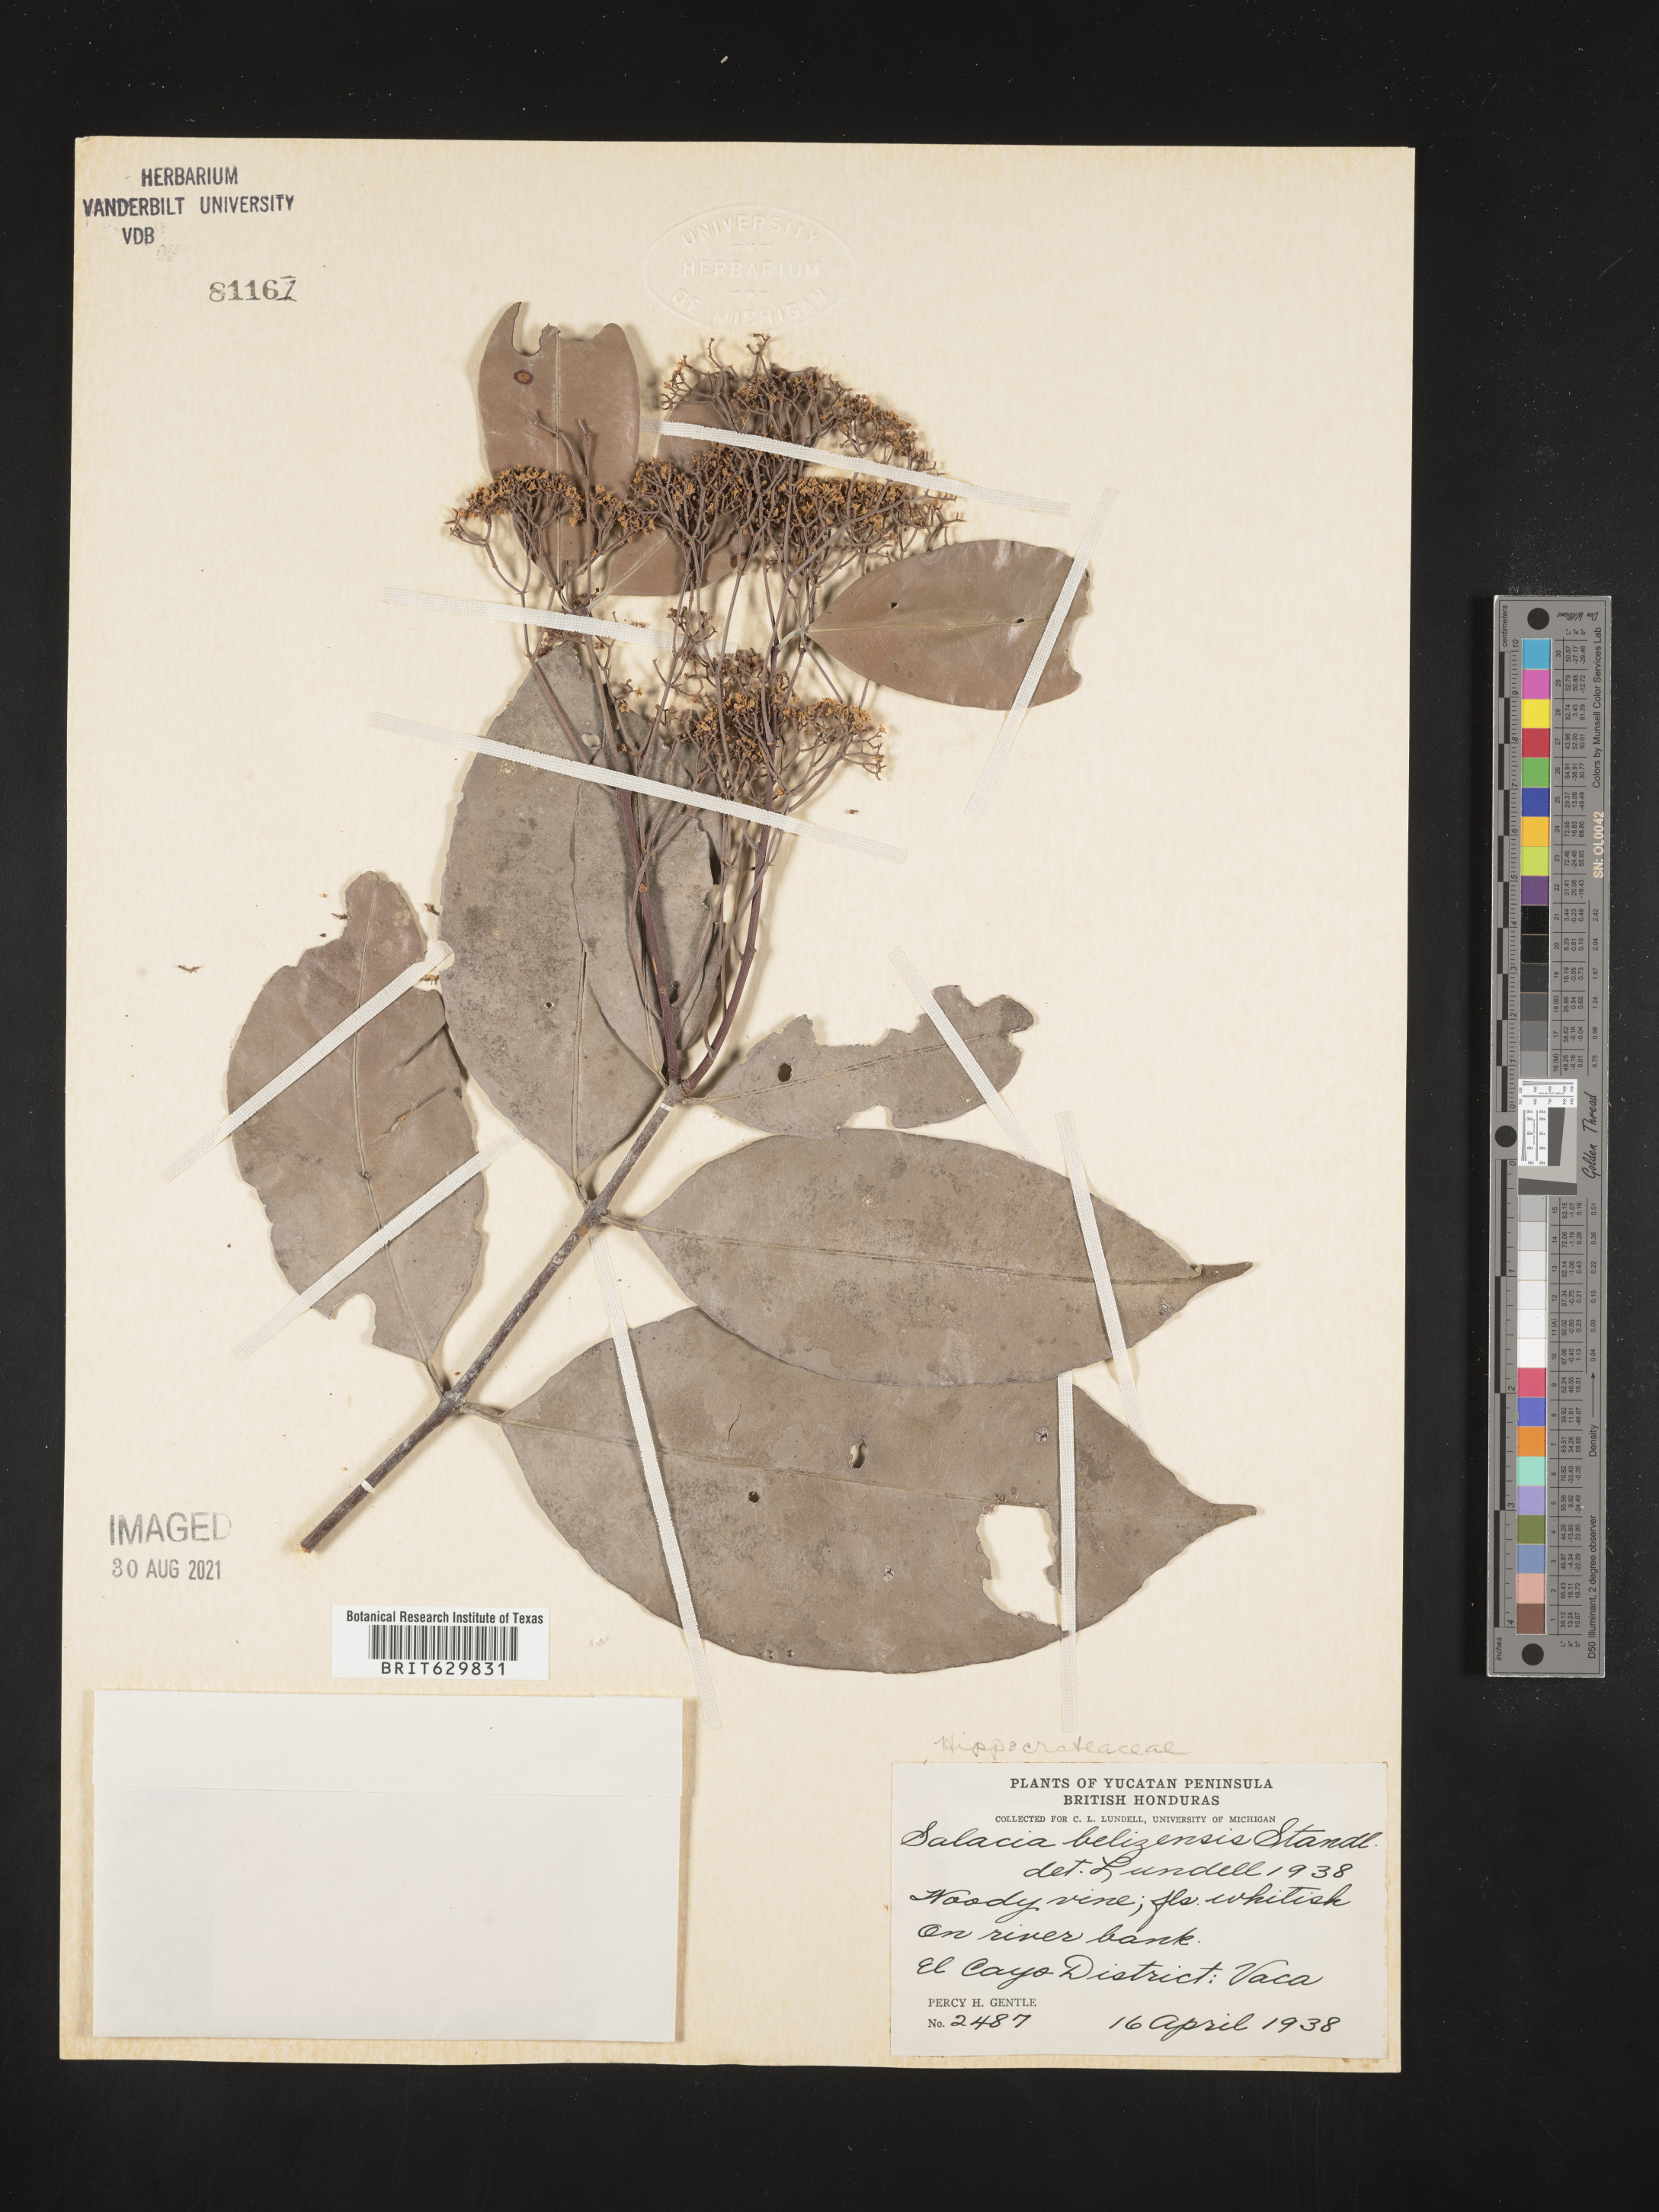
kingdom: Plantae
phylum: Tracheophyta
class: Magnoliopsida
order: Celastrales
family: Celastraceae
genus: Cheiloclinium
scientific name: Cheiloclinium belizense
